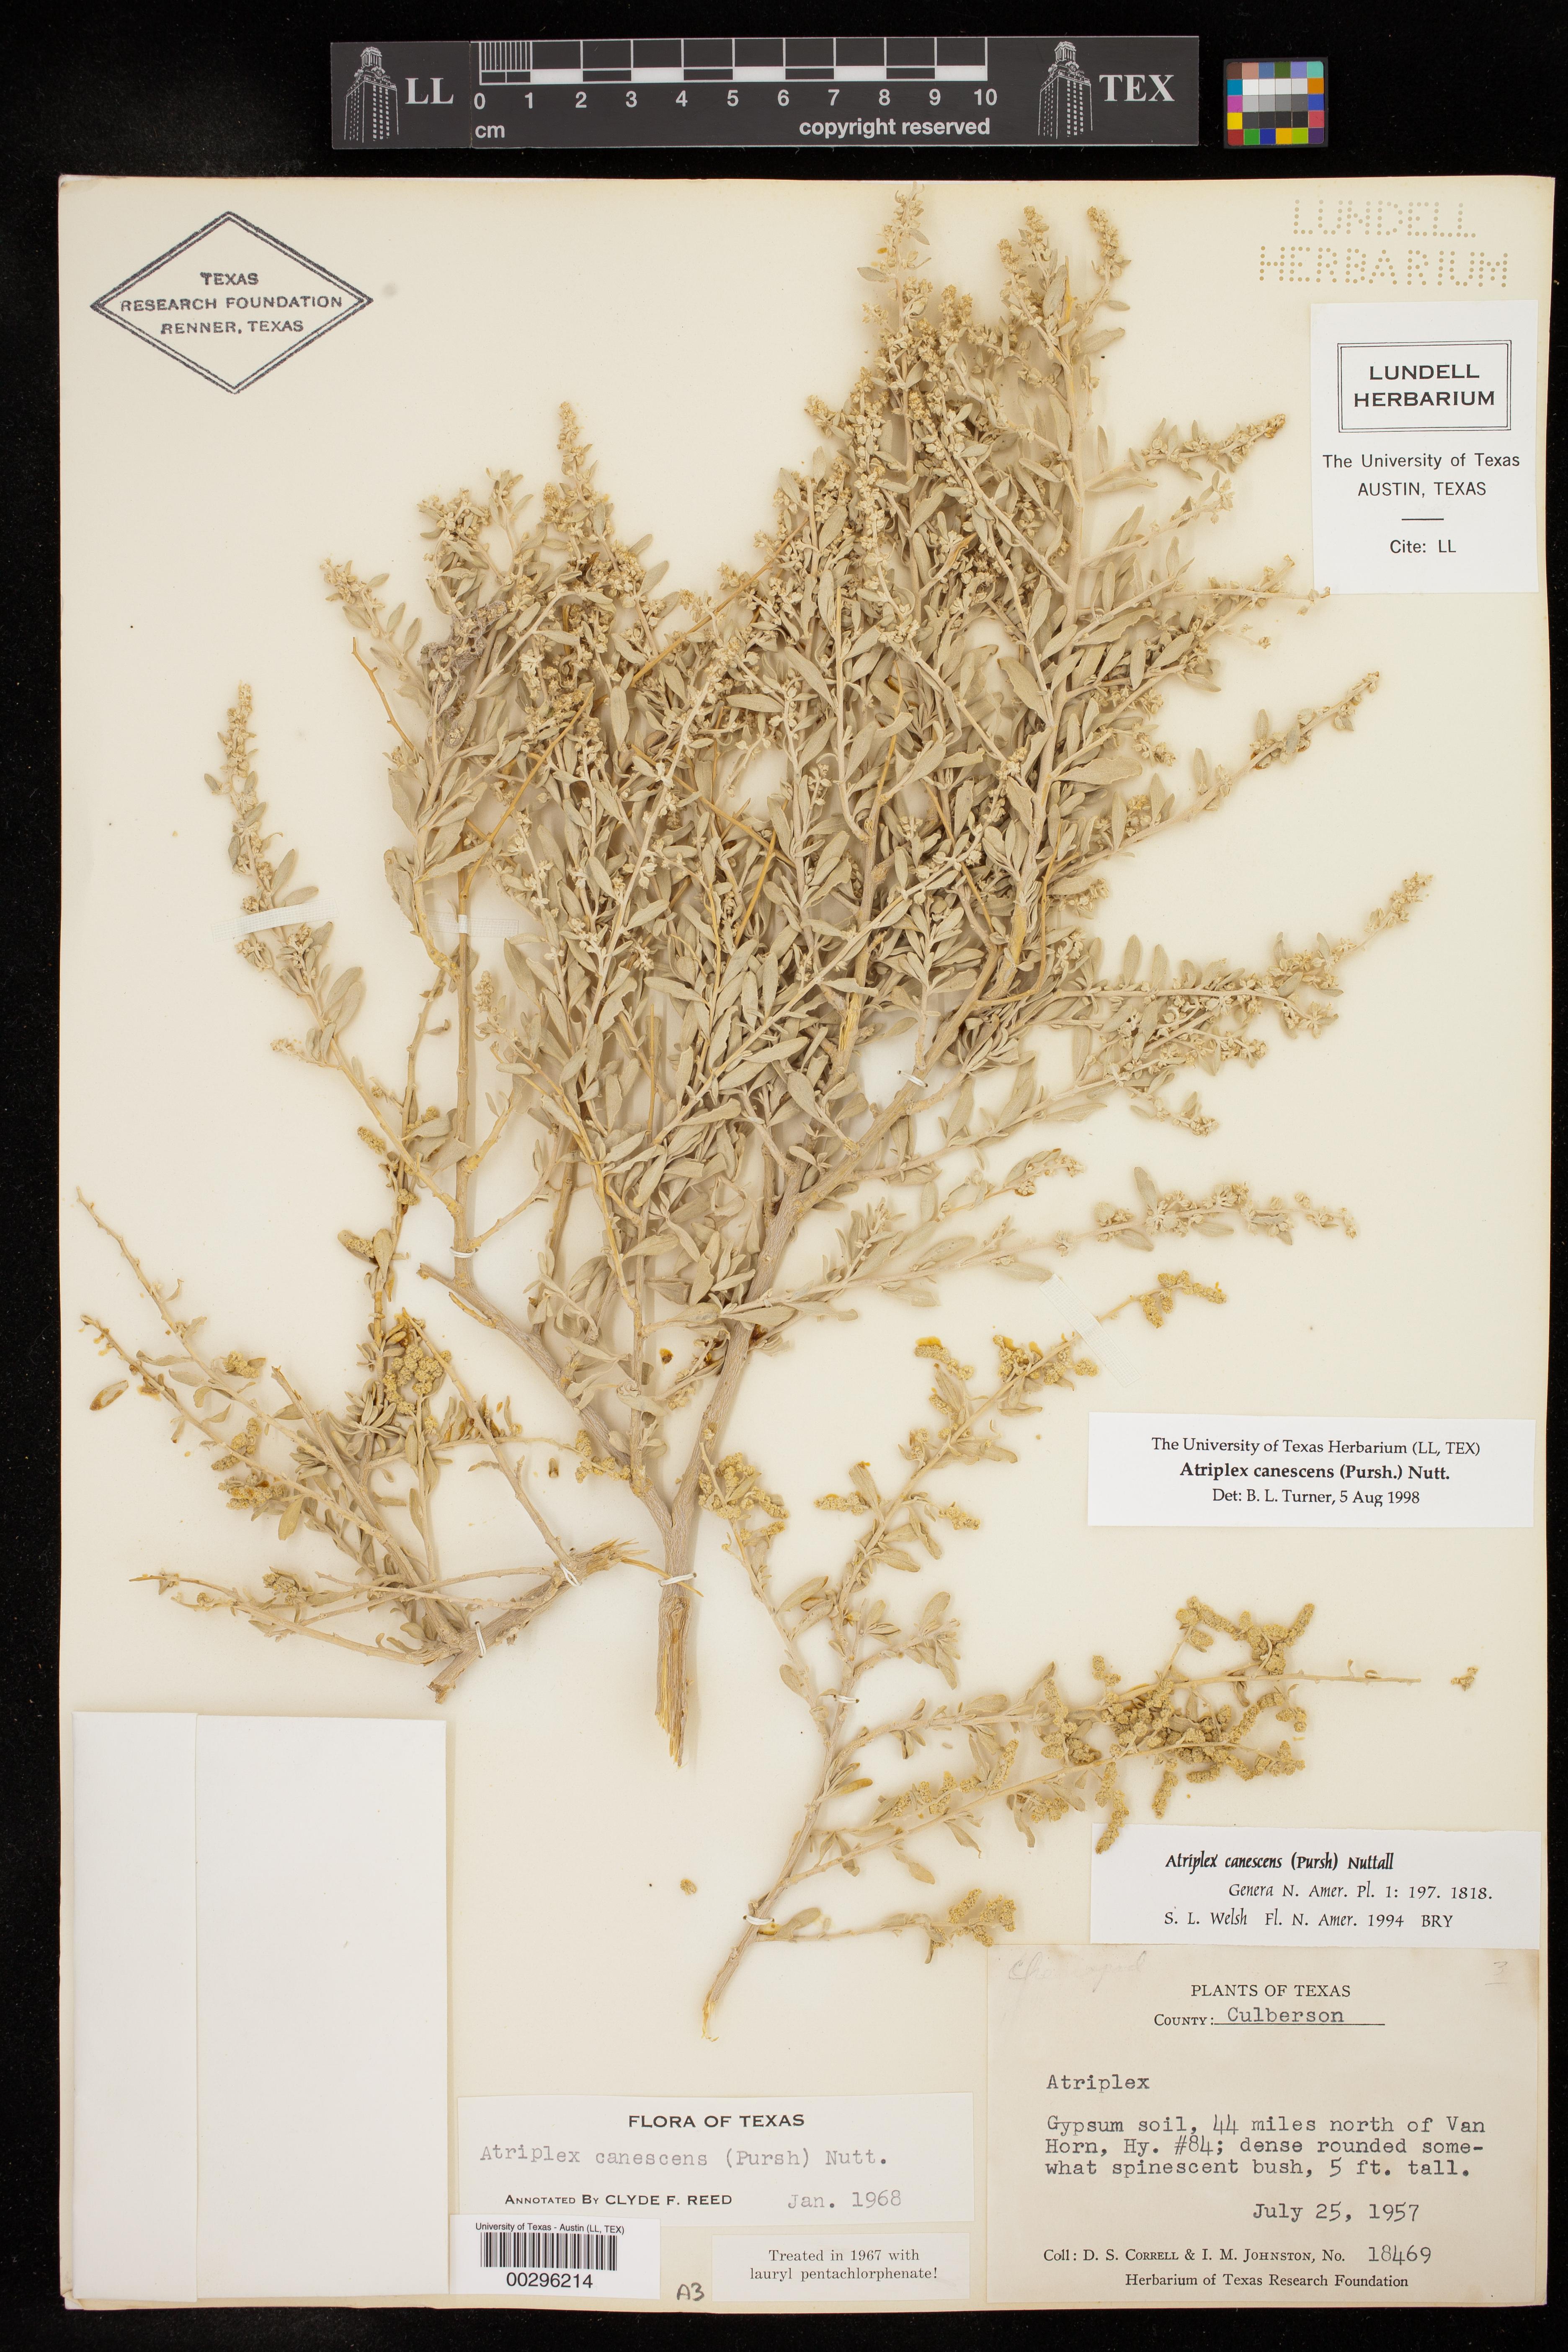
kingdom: Plantae
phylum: Tracheophyta
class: Magnoliopsida
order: Caryophyllales
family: Amaranthaceae
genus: Atriplex
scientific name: Atriplex canescens
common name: Four-wing saltbush
